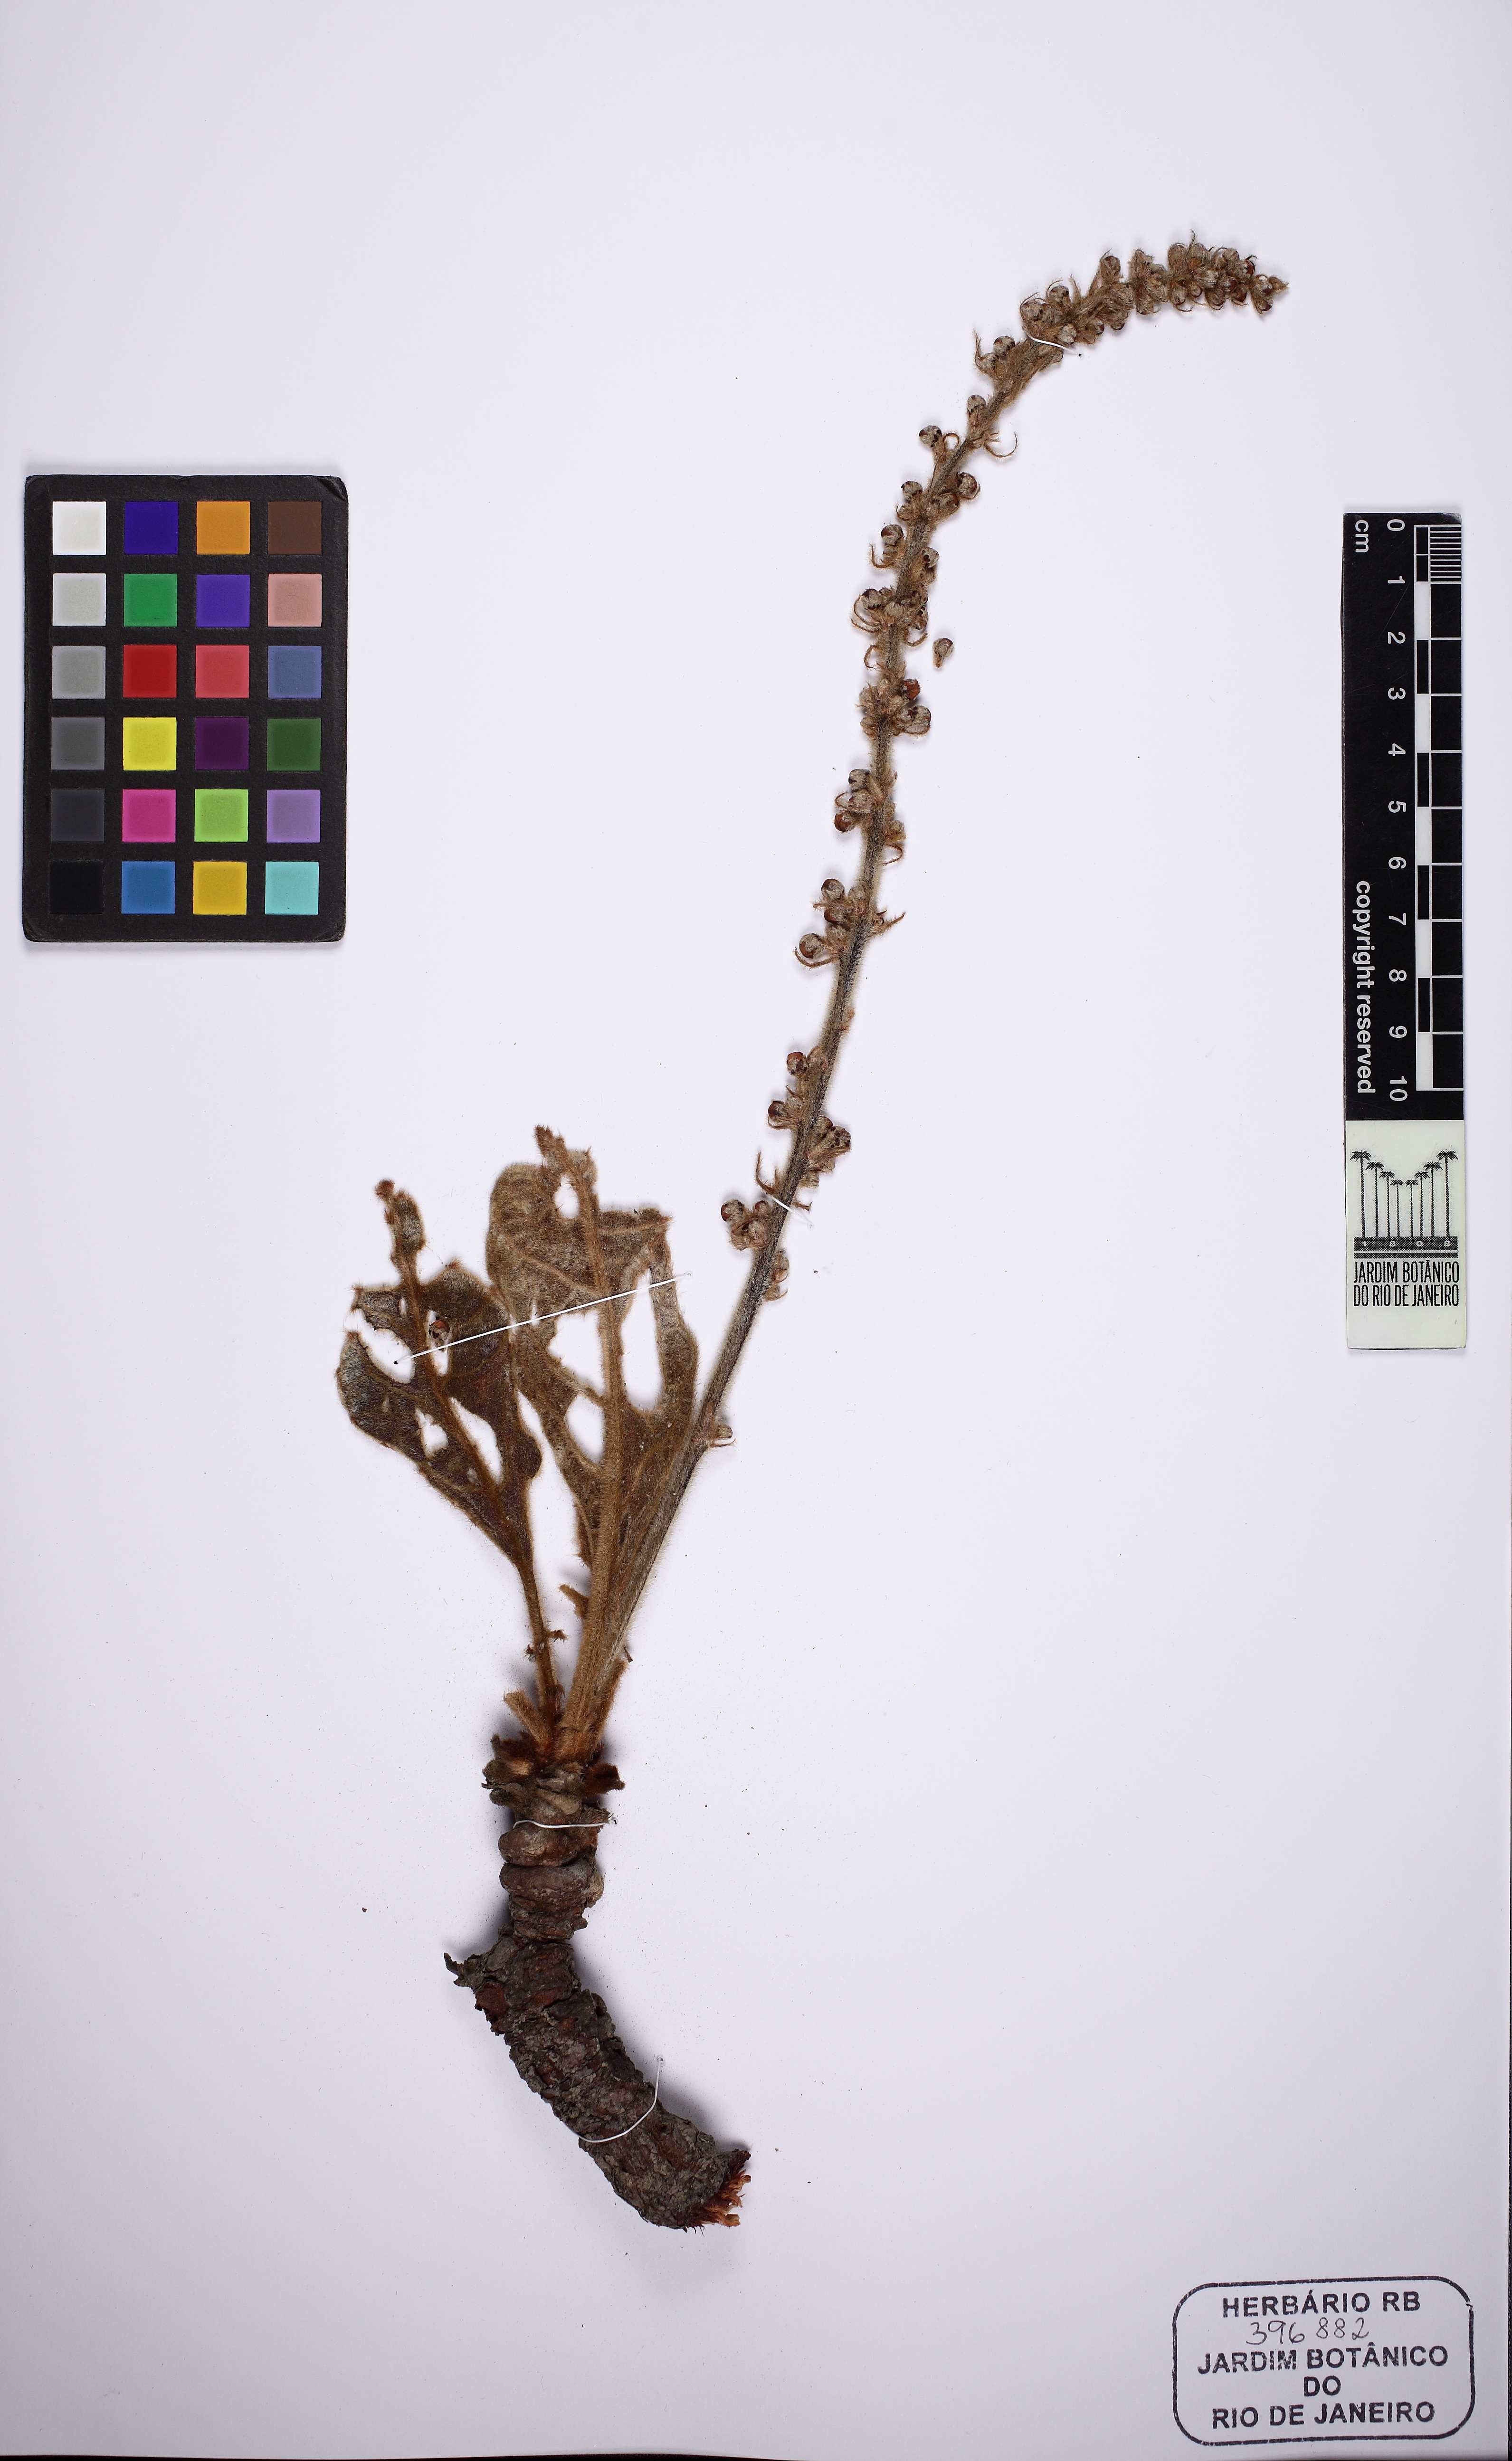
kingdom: Plantae
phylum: Tracheophyta
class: Magnoliopsida
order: Malpighiales
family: Malpighiaceae
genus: Byrsonima
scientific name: Byrsonima verbascifolia
